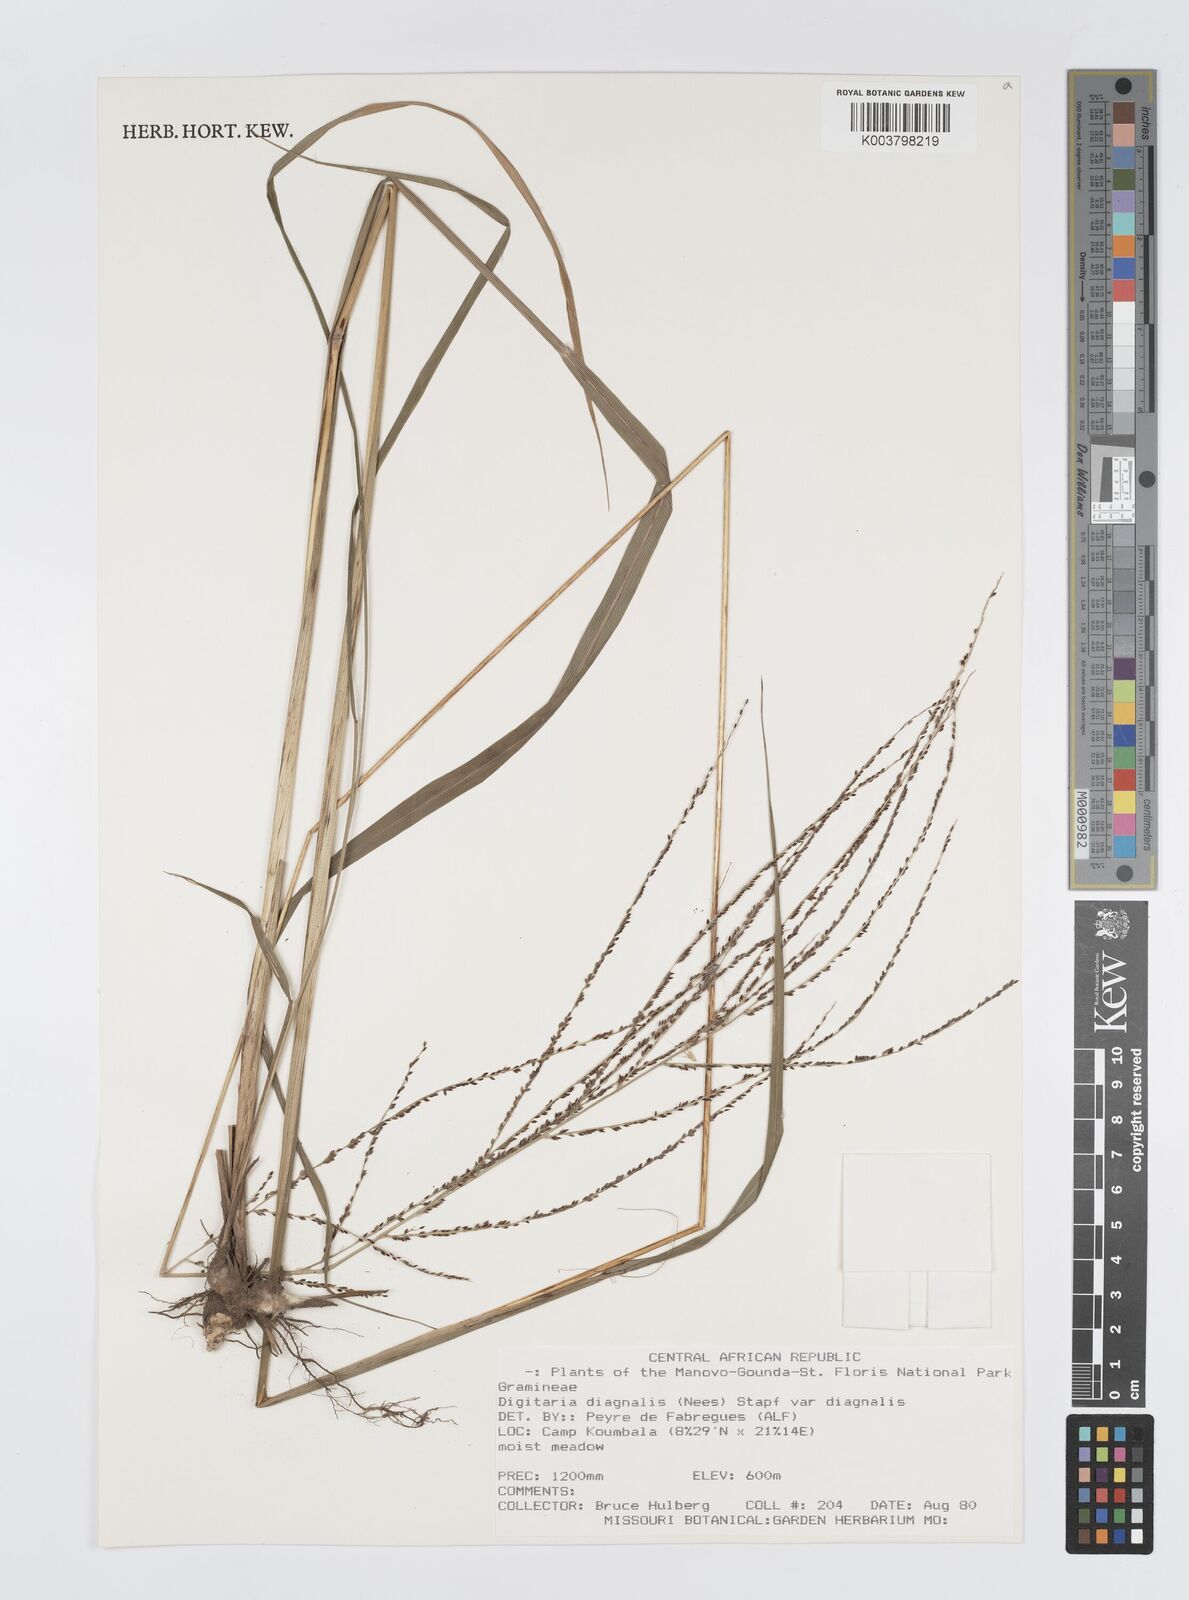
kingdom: Plantae
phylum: Tracheophyta
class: Liliopsida
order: Poales
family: Poaceae
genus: Digitaria
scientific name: Digitaria diagonalis
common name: Brown-seed finger grass
